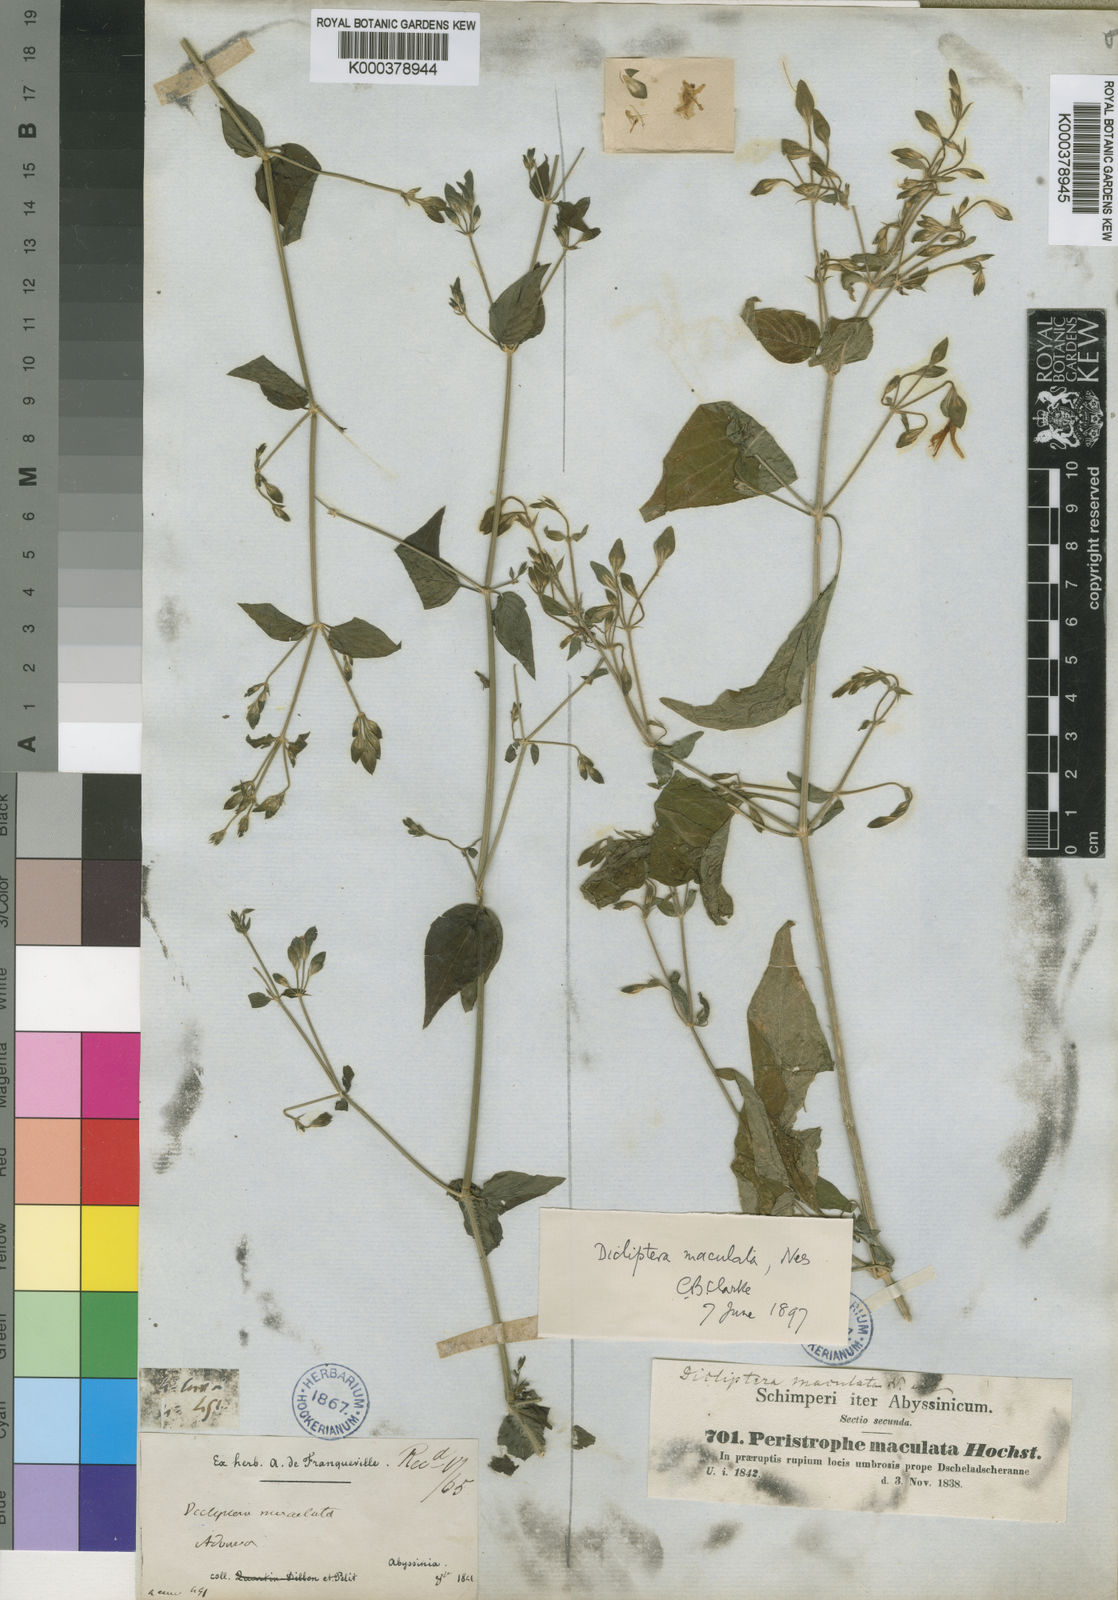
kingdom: Plantae
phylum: Tracheophyta
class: Magnoliopsida
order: Lamiales
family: Acanthaceae
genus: Dicliptera
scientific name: Dicliptera maculata
